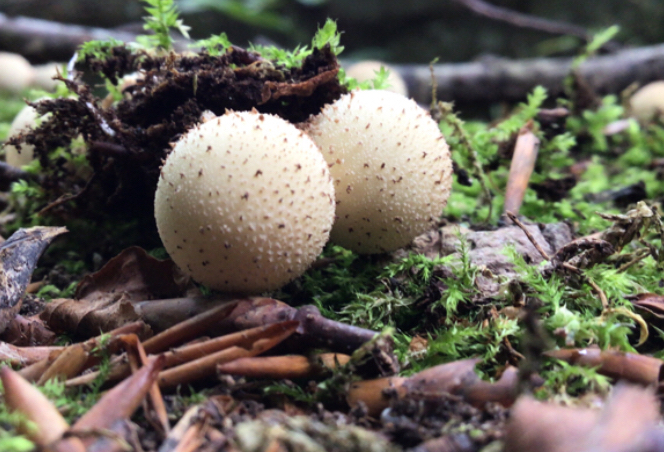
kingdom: Fungi
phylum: Basidiomycota
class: Agaricomycetes
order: Agaricales
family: Lycoperdaceae
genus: Apioperdon
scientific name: Apioperdon pyriforme
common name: pære-støvbold
